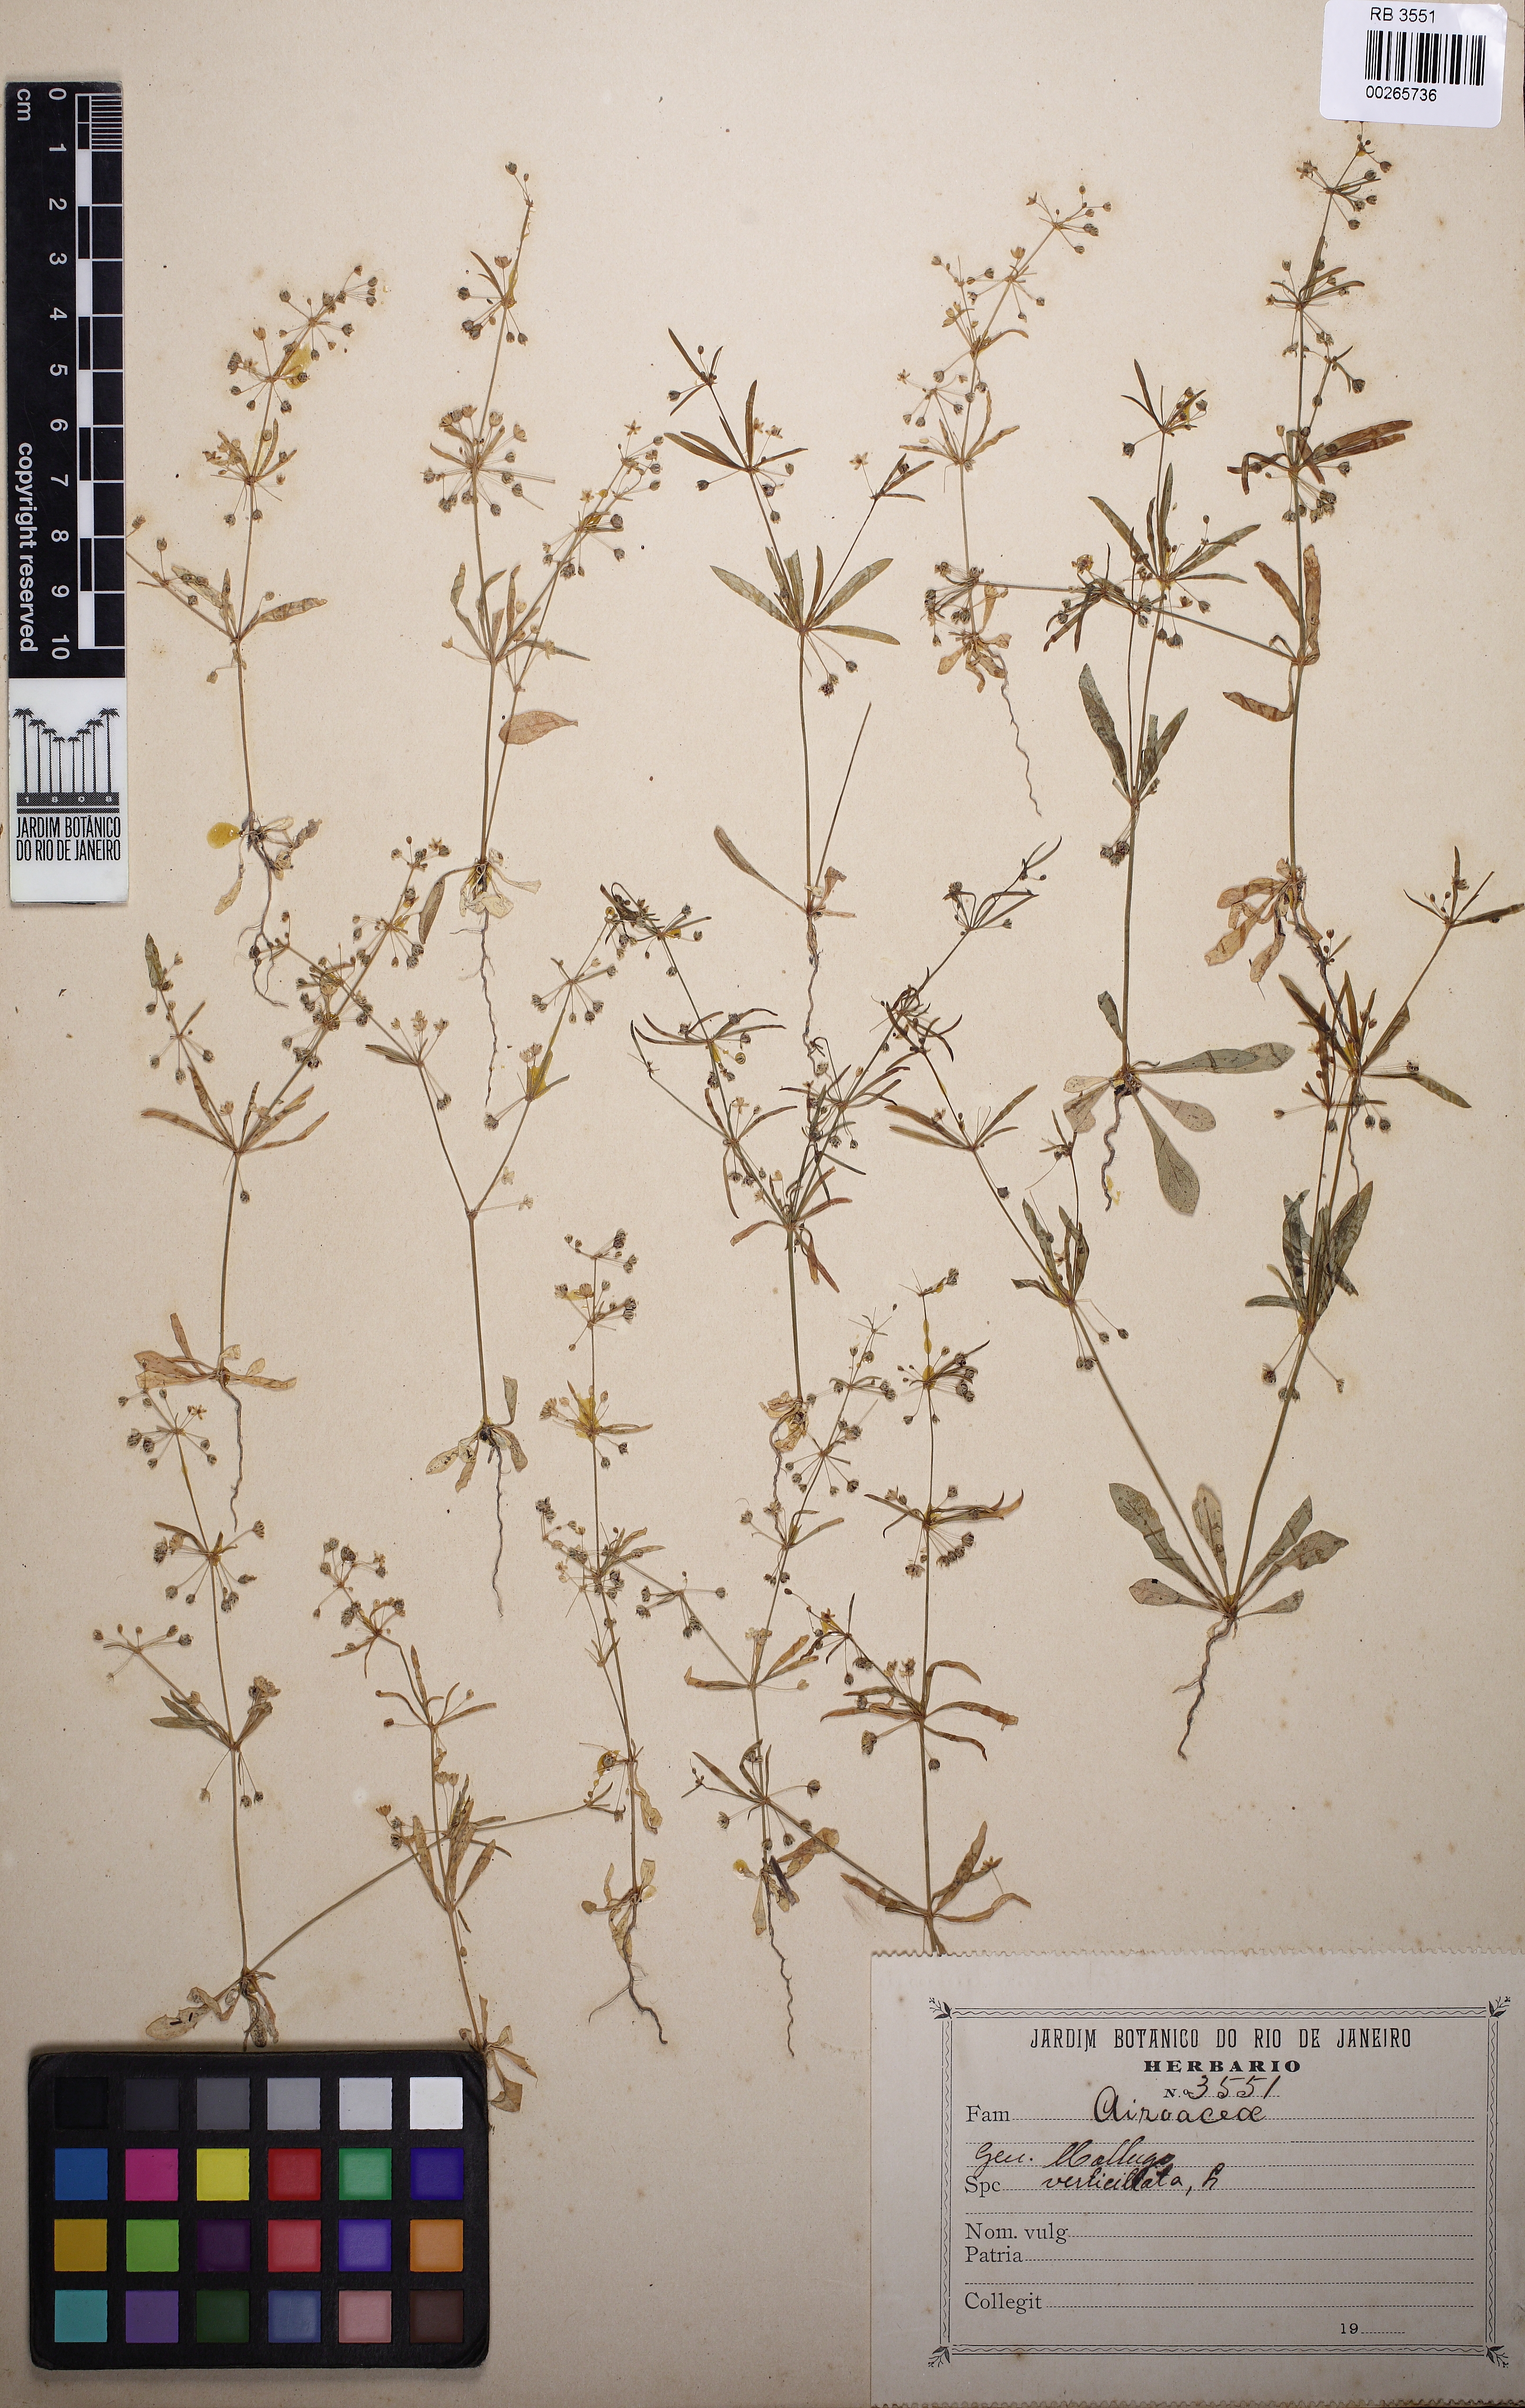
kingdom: Plantae
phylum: Tracheophyta
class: Magnoliopsida
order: Caryophyllales
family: Molluginaceae
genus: Mollugo
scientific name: Mollugo verticillata
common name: Green carpetweed
